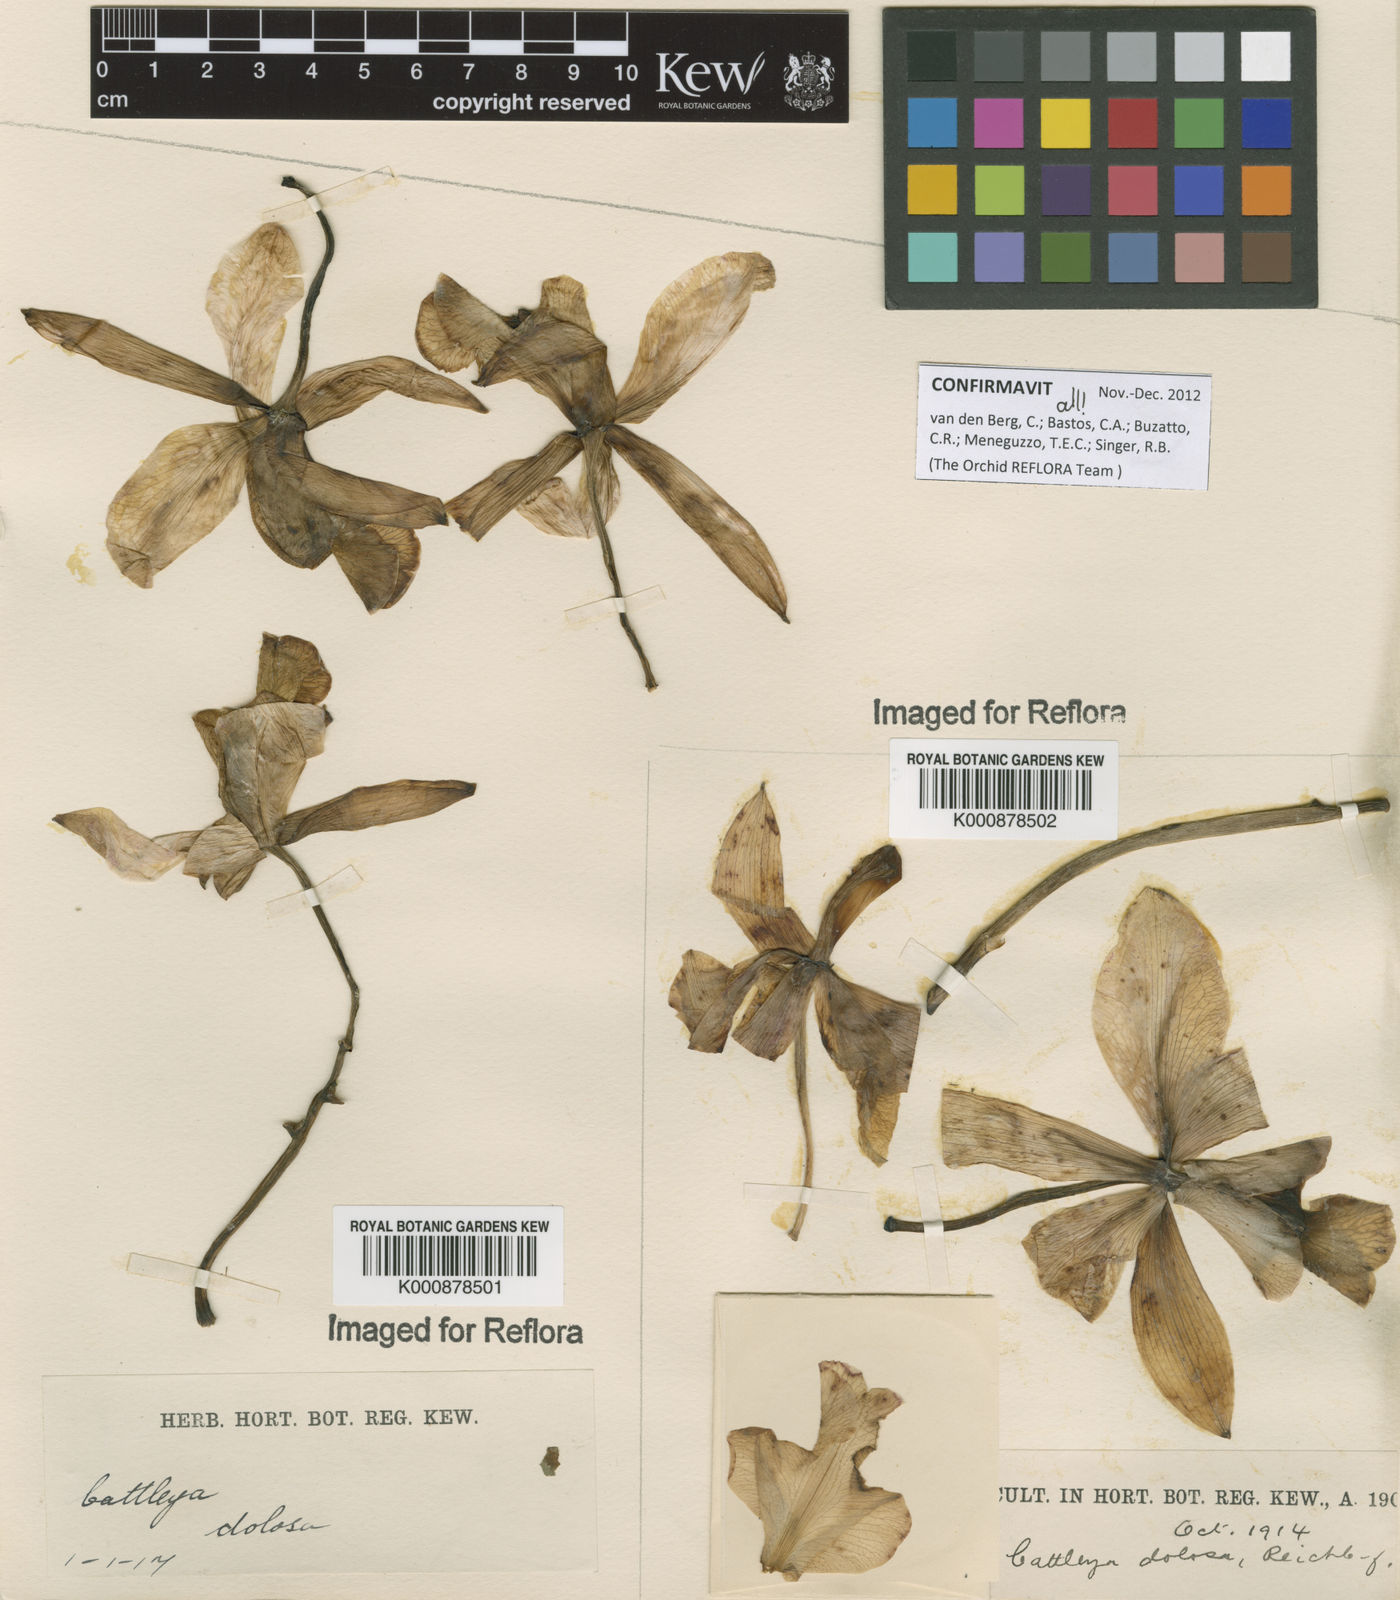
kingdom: Plantae
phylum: Tracheophyta
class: Liliopsida
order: Asparagales
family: Orchidaceae
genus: Cattleya
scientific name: Cattleya
